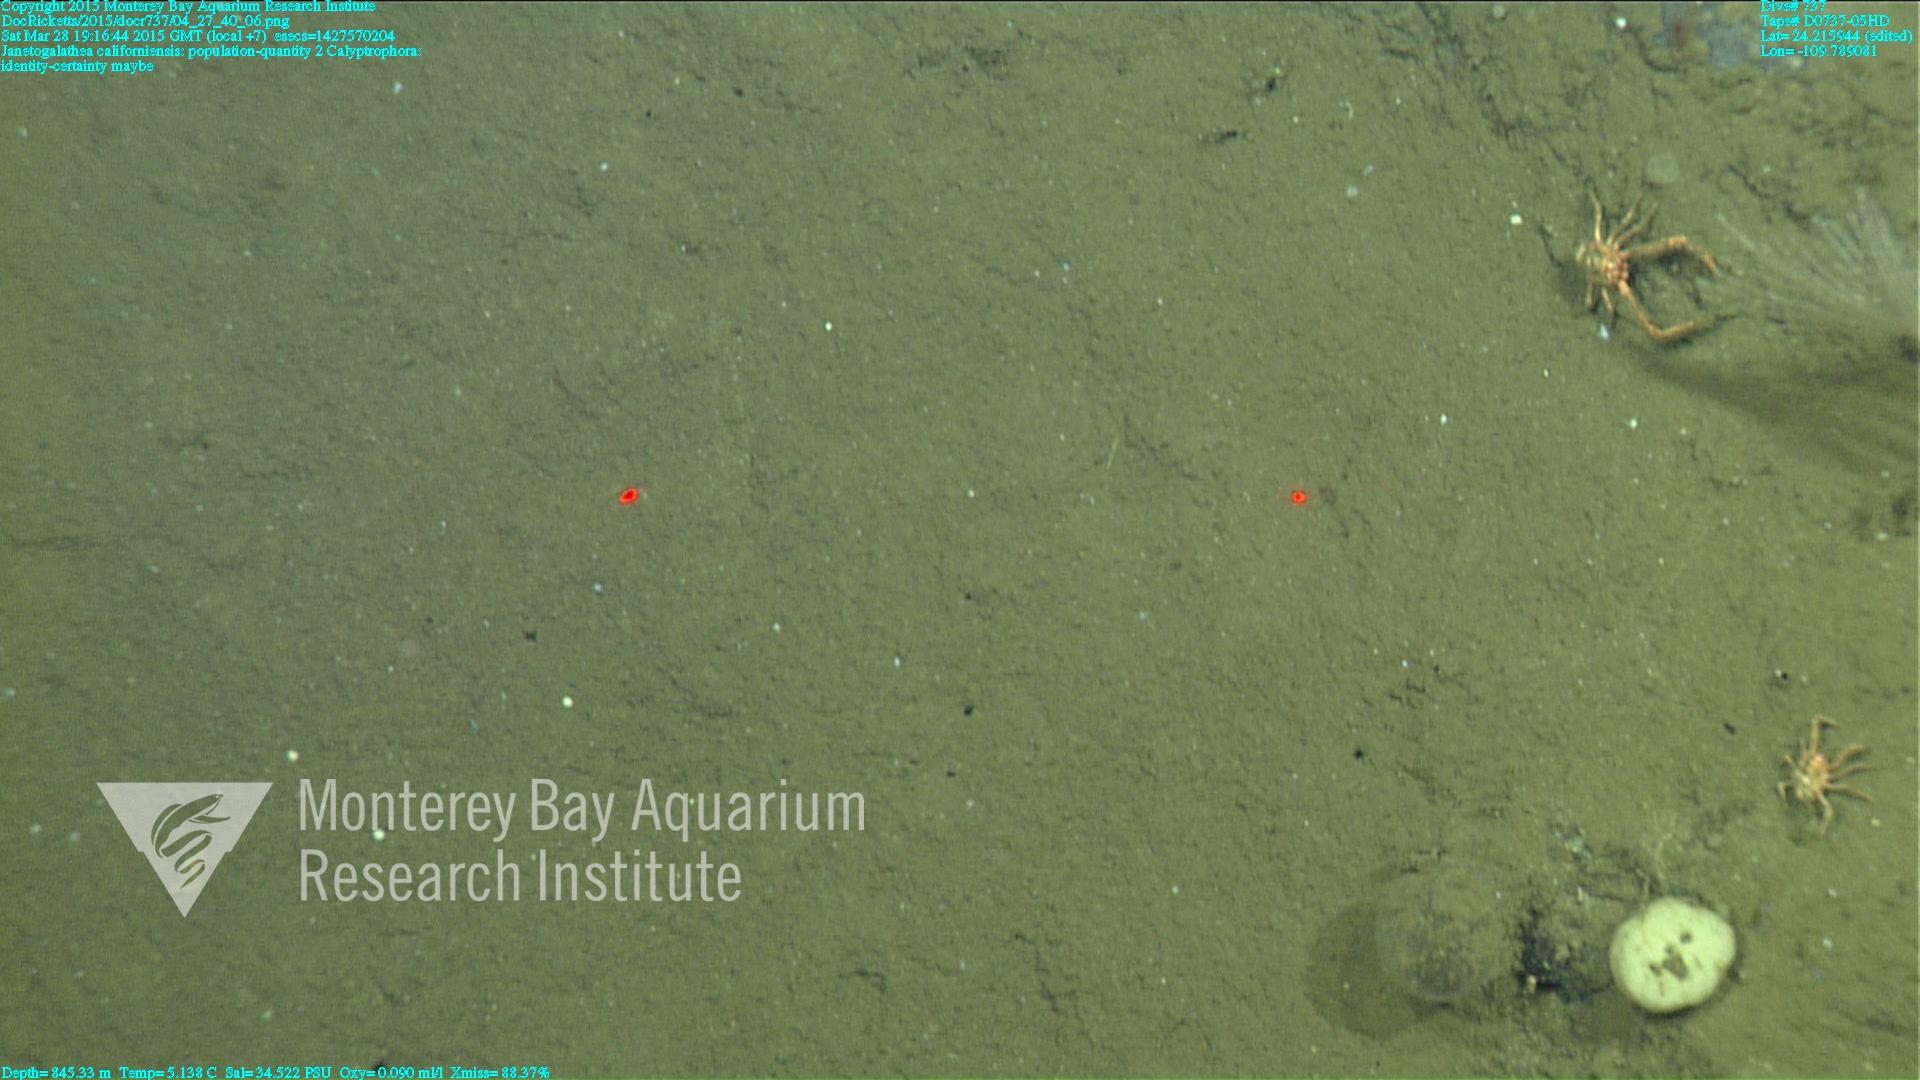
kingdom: Animalia
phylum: Cnidaria
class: Anthozoa
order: Scleralcyonacea
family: Primnoidae
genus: Calyptrophora
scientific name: Calyptrophora
